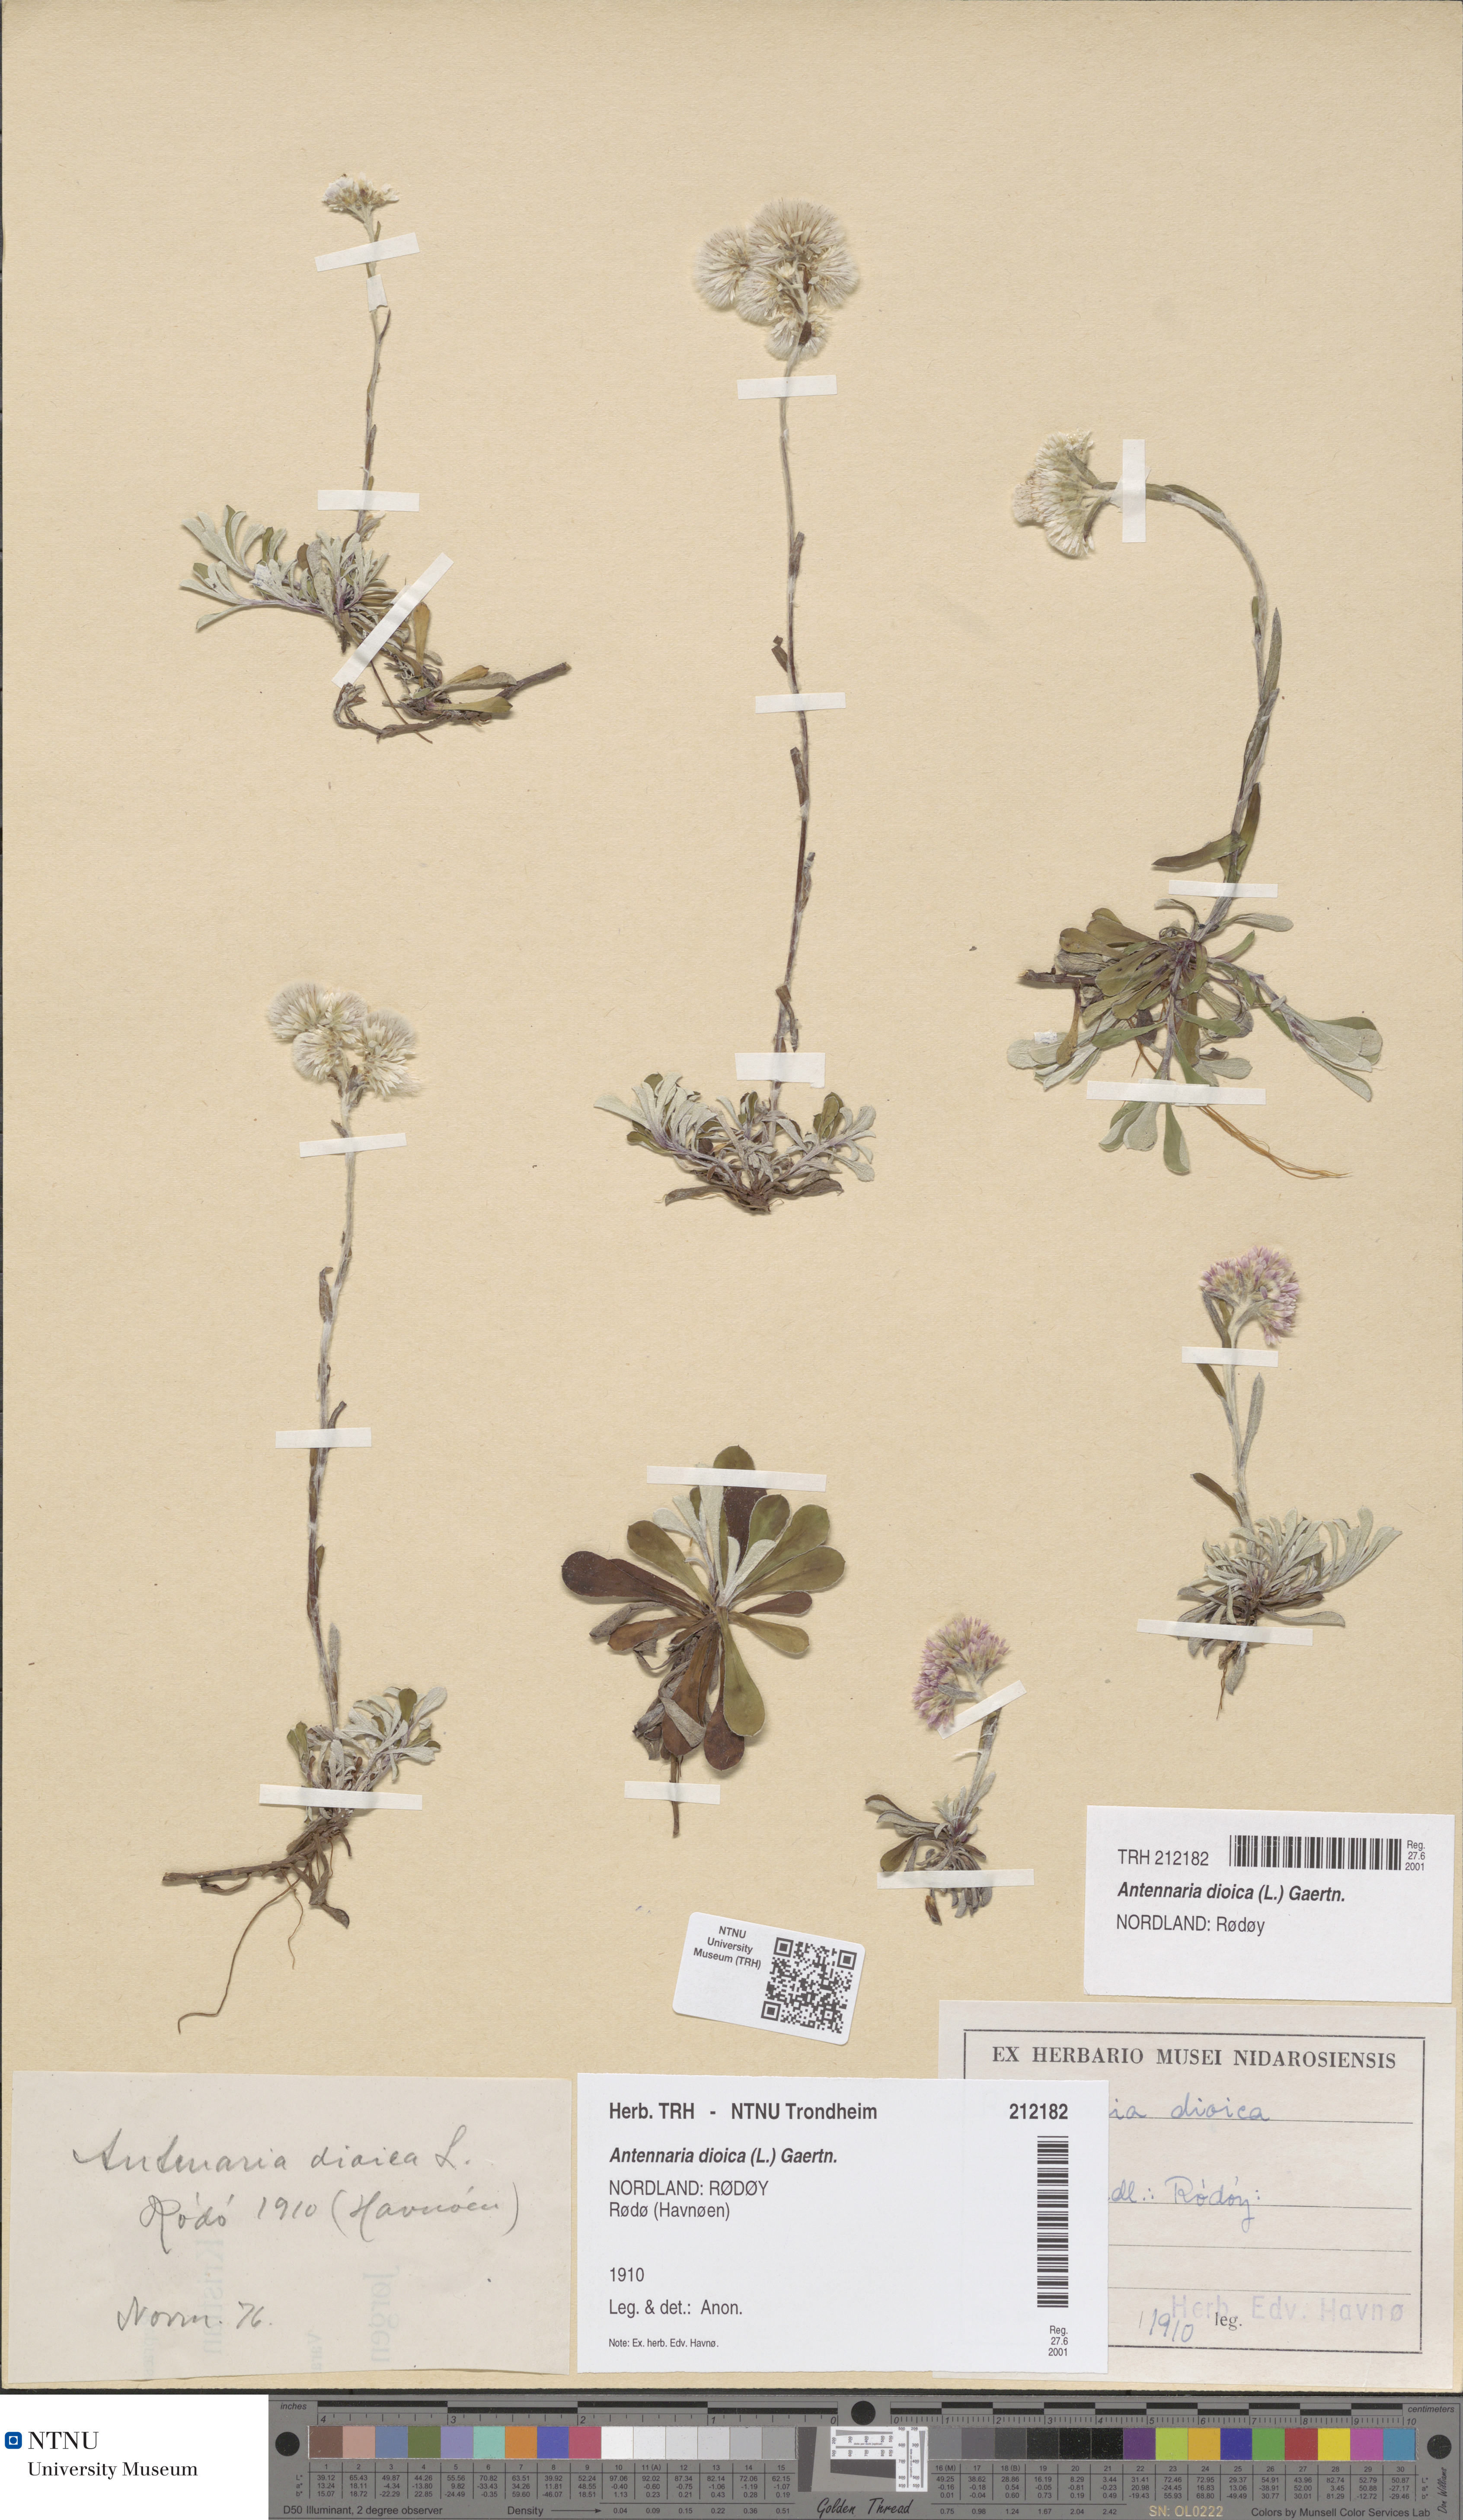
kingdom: Plantae
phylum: Tracheophyta
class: Magnoliopsida
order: Asterales
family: Asteraceae
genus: Antennaria
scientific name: Antennaria dioica
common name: Mountain everlasting
